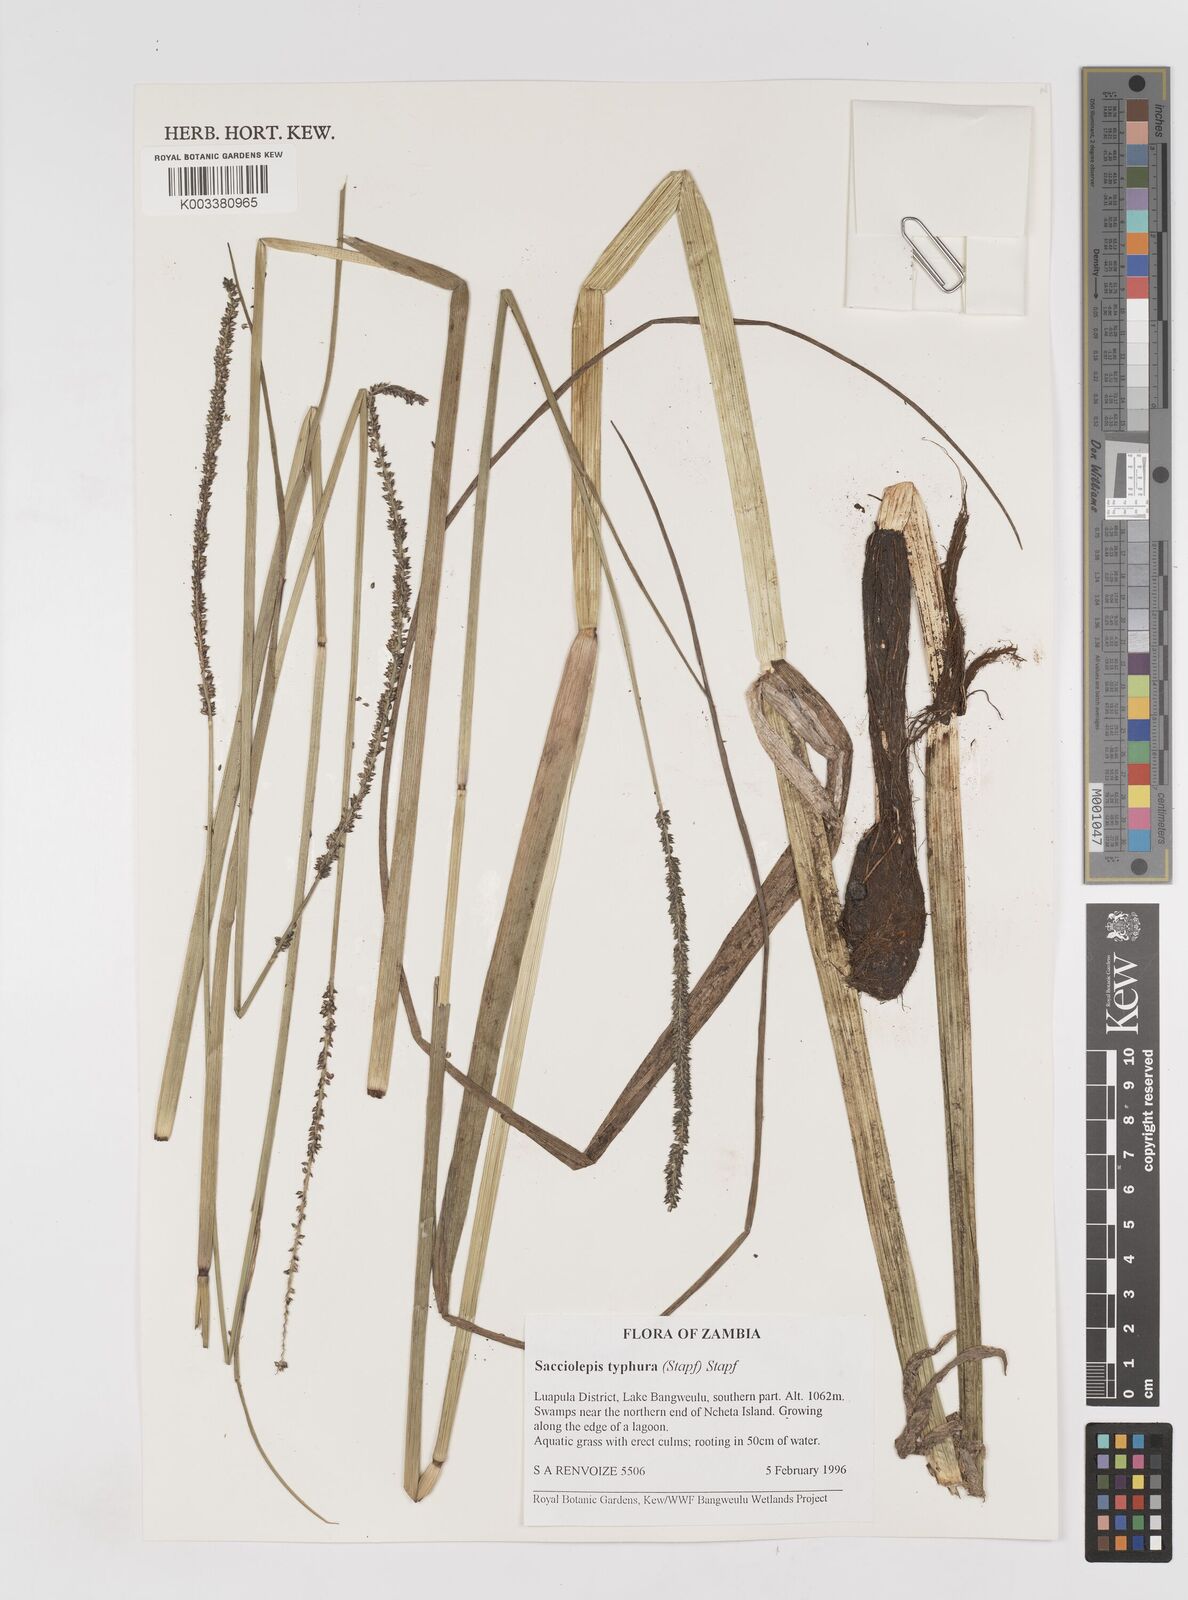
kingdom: Plantae
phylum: Tracheophyta
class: Liliopsida
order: Poales
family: Poaceae
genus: Sacciolepis
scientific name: Sacciolepis typhura
